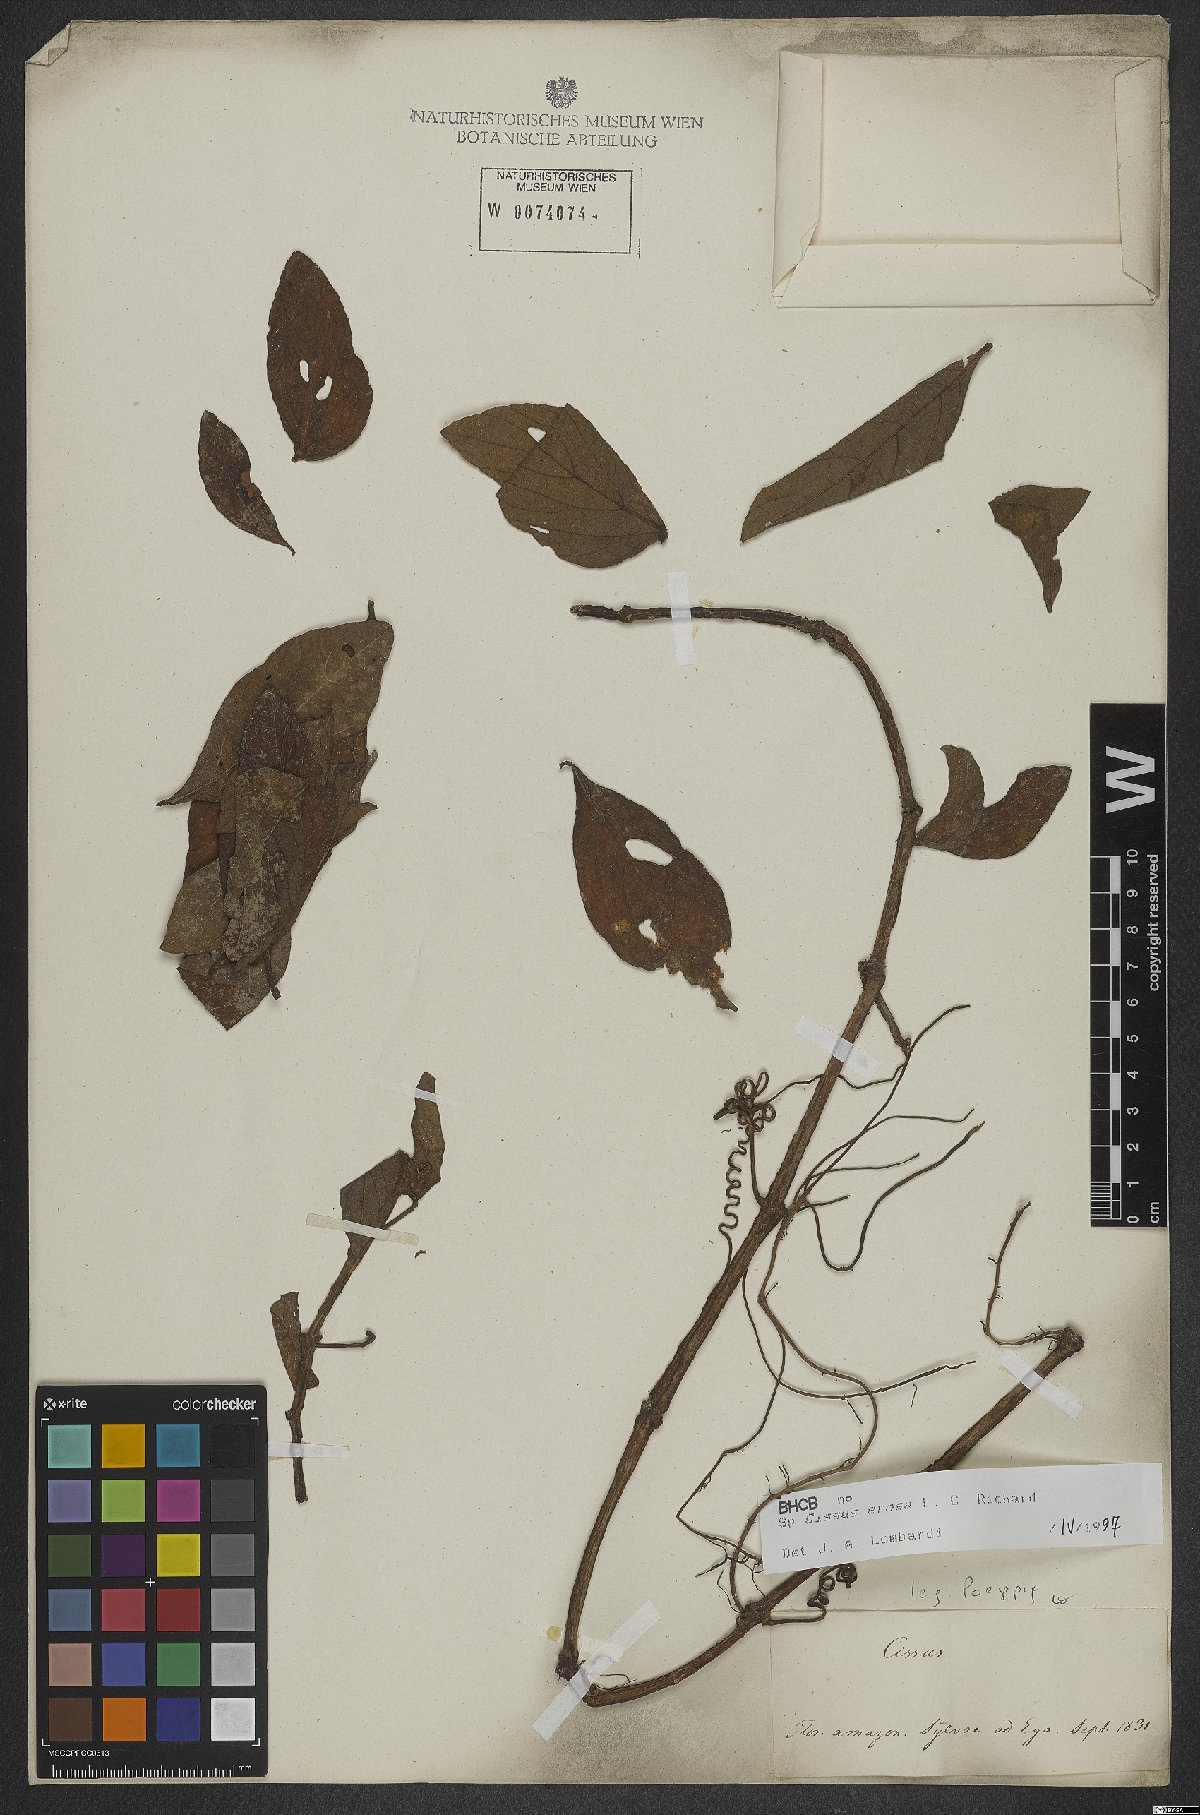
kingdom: Plantae
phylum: Tracheophyta
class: Magnoliopsida
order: Vitales
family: Vitaceae
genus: Cissus
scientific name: Cissus erosa
